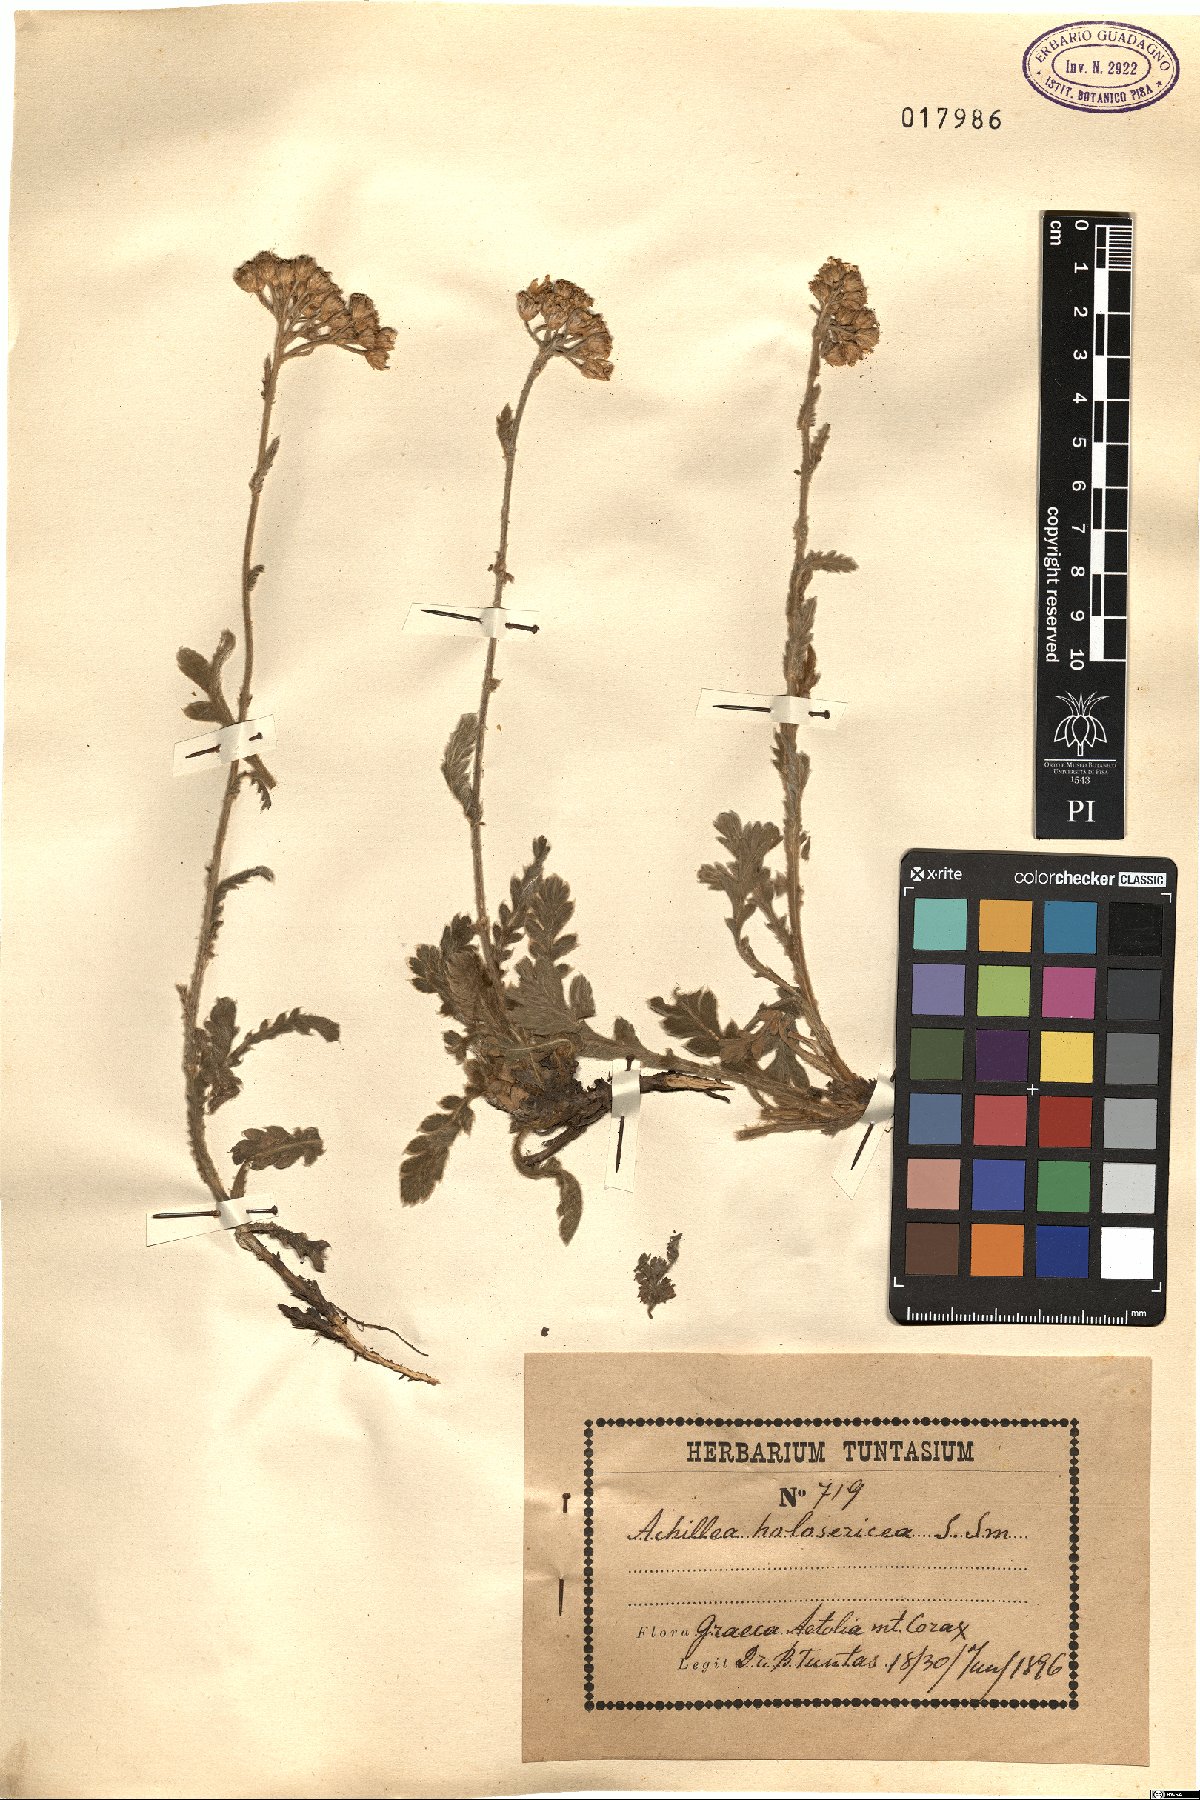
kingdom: Plantae
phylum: Tracheophyta
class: Magnoliopsida
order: Asterales
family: Asteraceae
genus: Achillea
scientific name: Achillea holosericea
